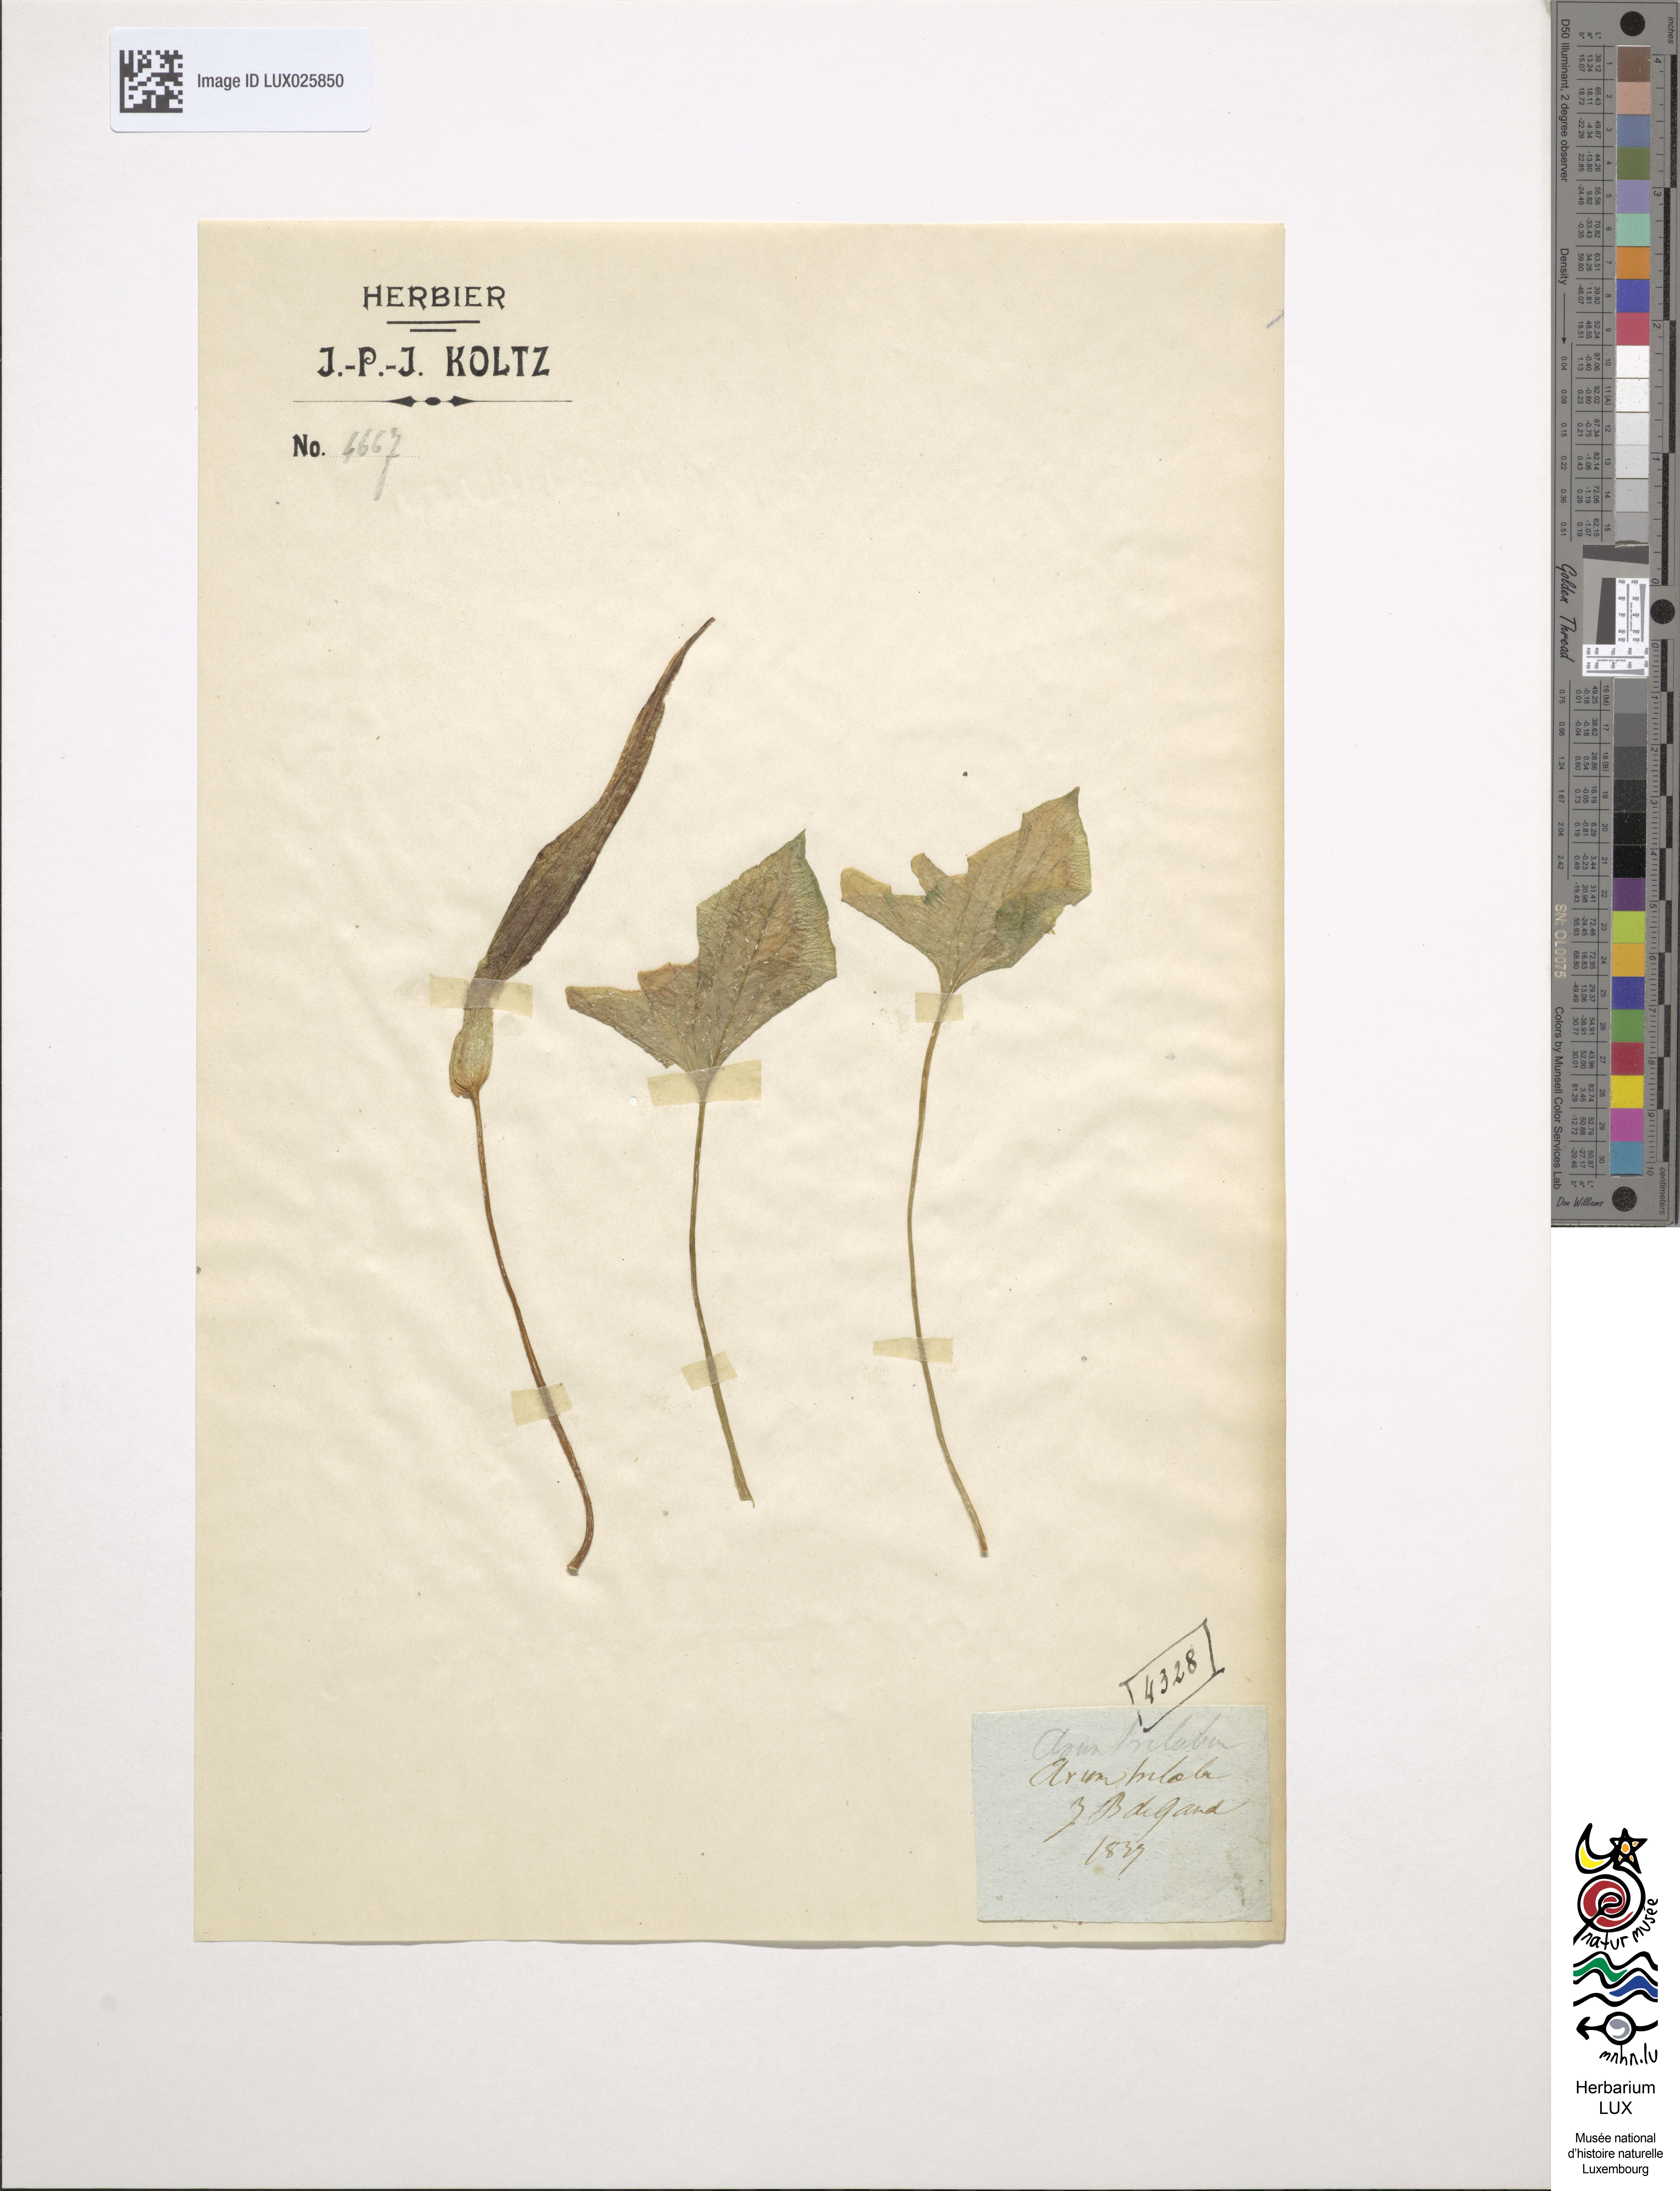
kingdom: Plantae
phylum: Tracheophyta
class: Liliopsida
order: Alismatales
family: Araceae
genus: Arum
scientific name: Arum trilobatum
